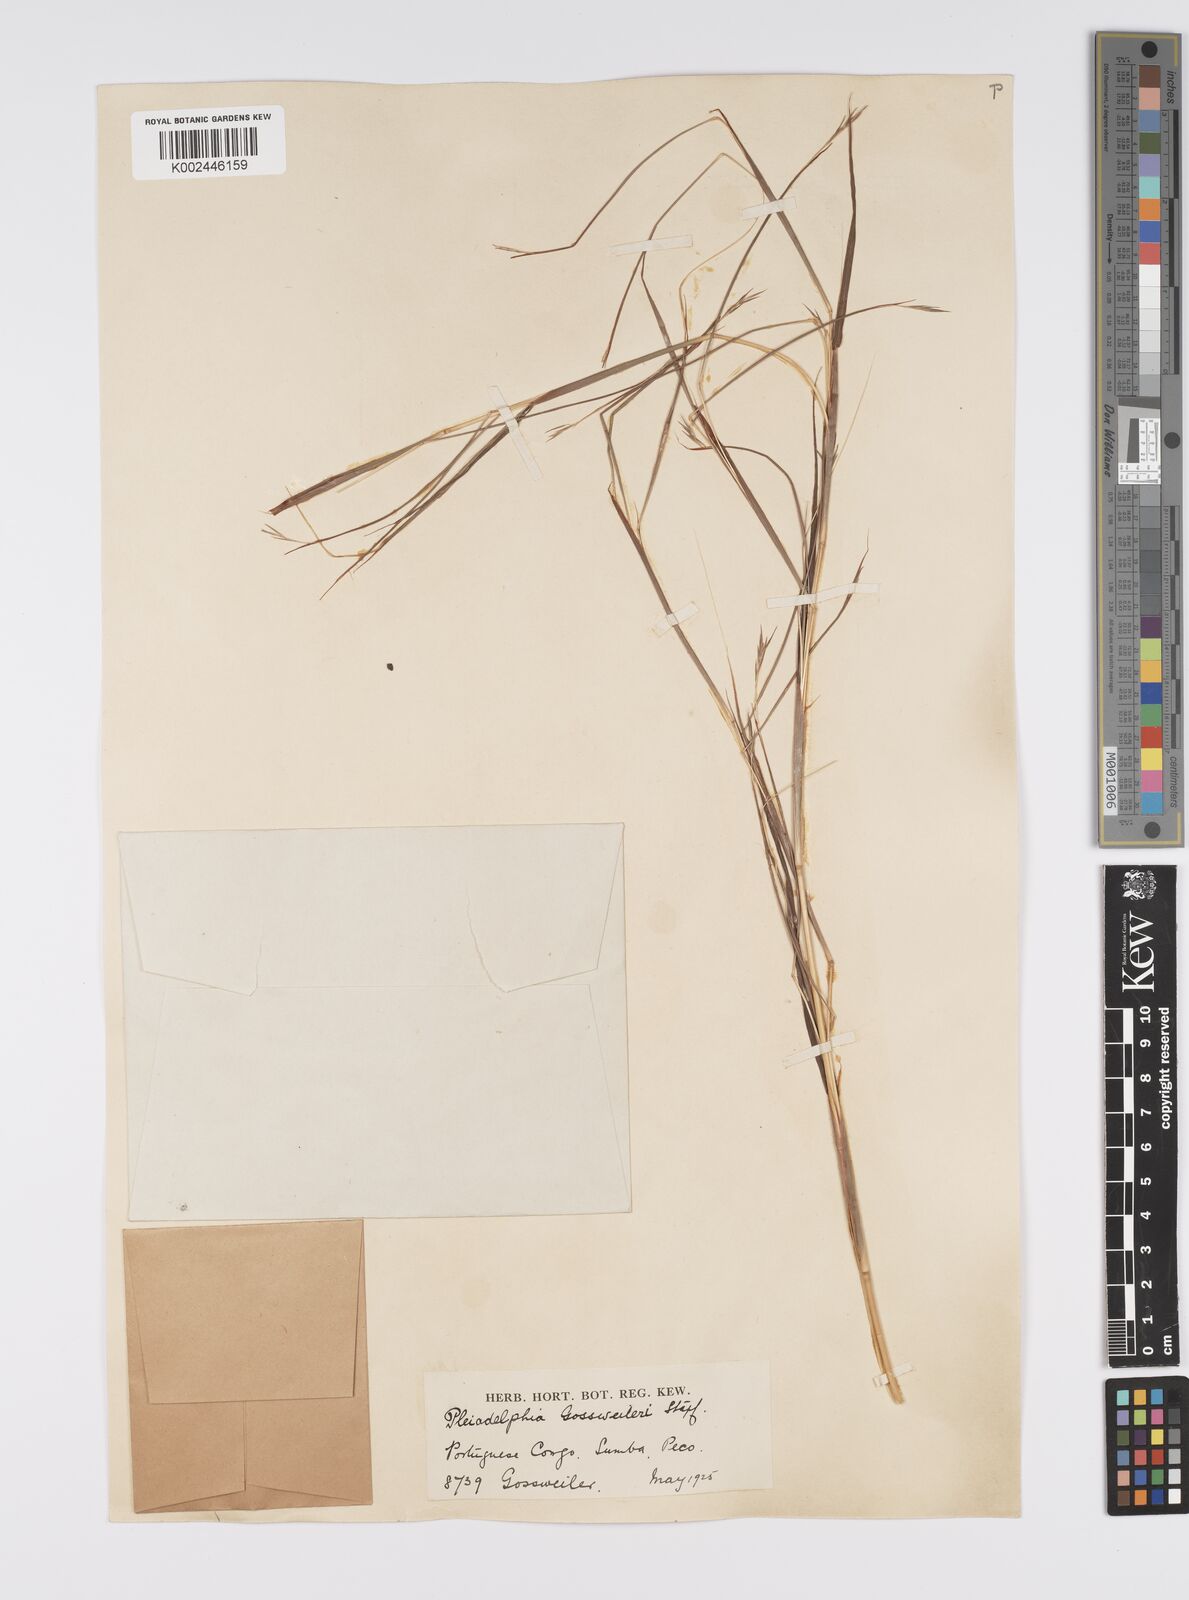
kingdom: Plantae
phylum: Tracheophyta
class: Liliopsida
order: Poales
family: Poaceae
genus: Elymandra
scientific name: Elymandra gossweileri
